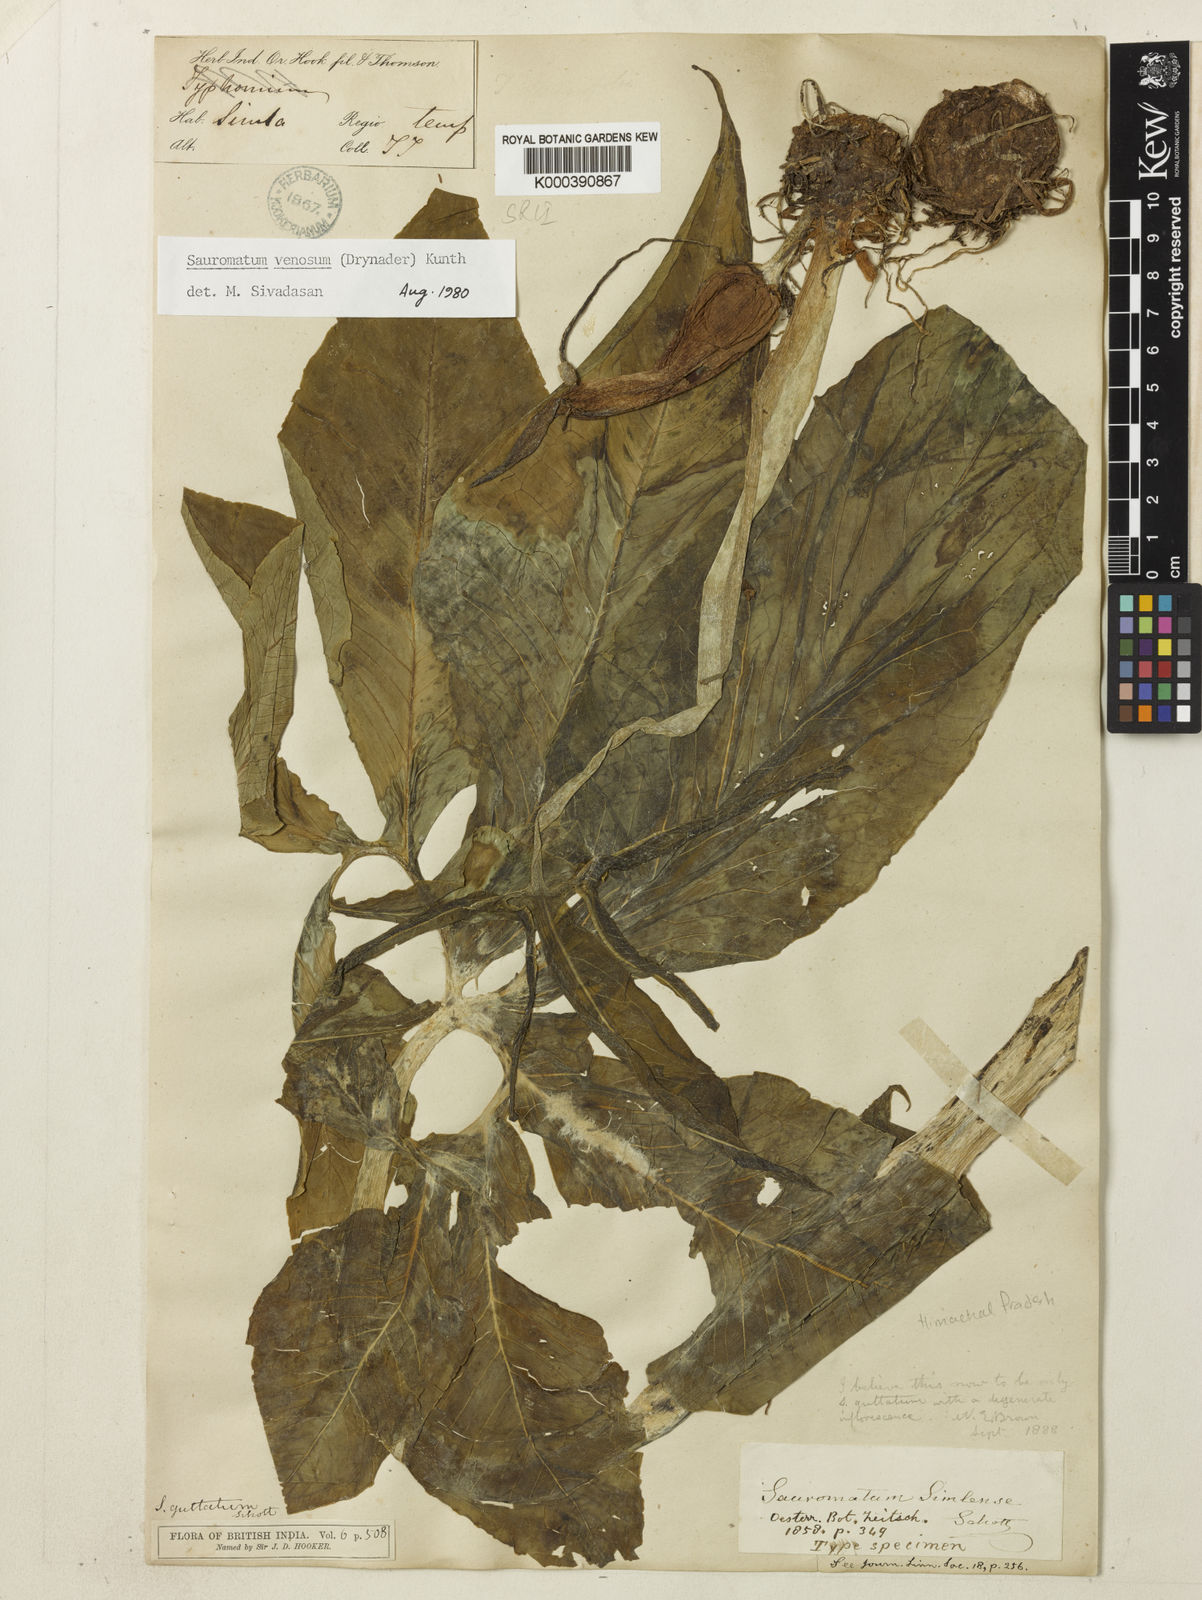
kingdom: Plantae
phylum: Tracheophyta
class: Liliopsida
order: Alismatales
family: Araceae
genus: Sauromatum
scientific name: Sauromatum venosum
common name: Voodoo lily
